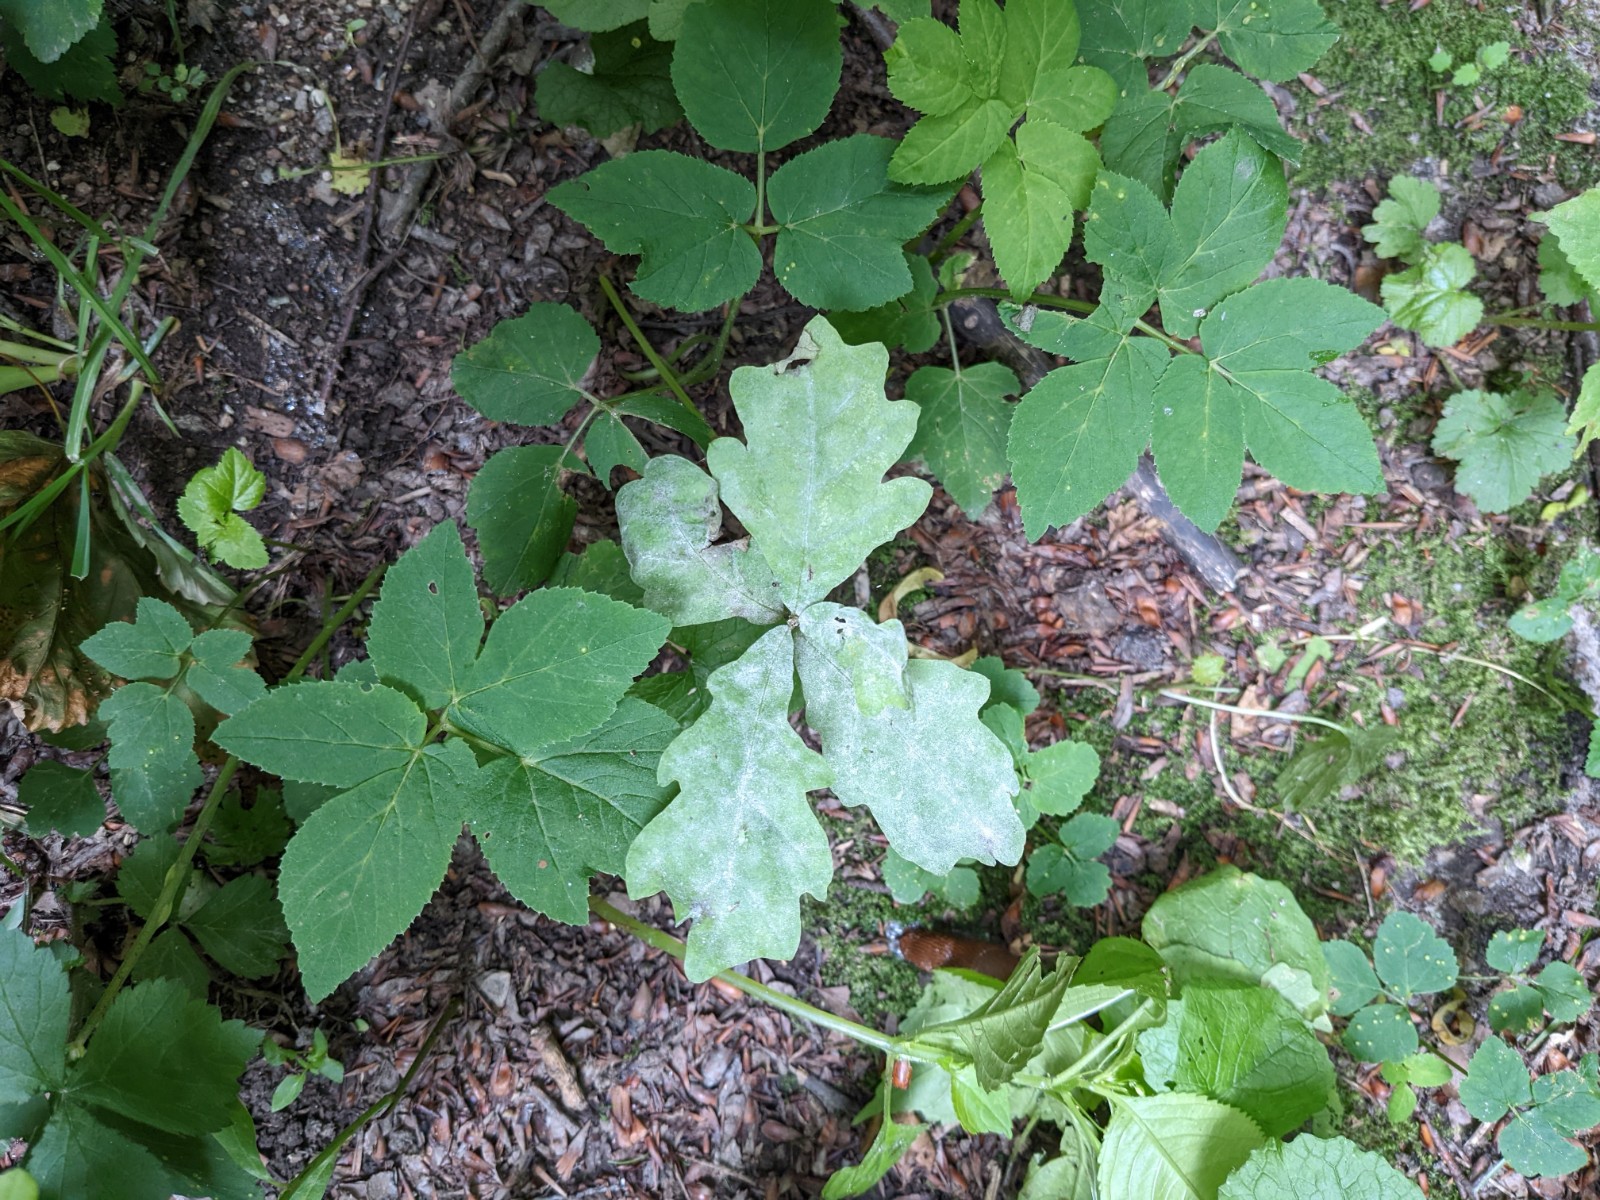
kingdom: Fungi
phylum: Ascomycota
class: Leotiomycetes
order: Helotiales
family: Erysiphaceae
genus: Erysiphe
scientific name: Erysiphe alphitoides
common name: ege-meldug
